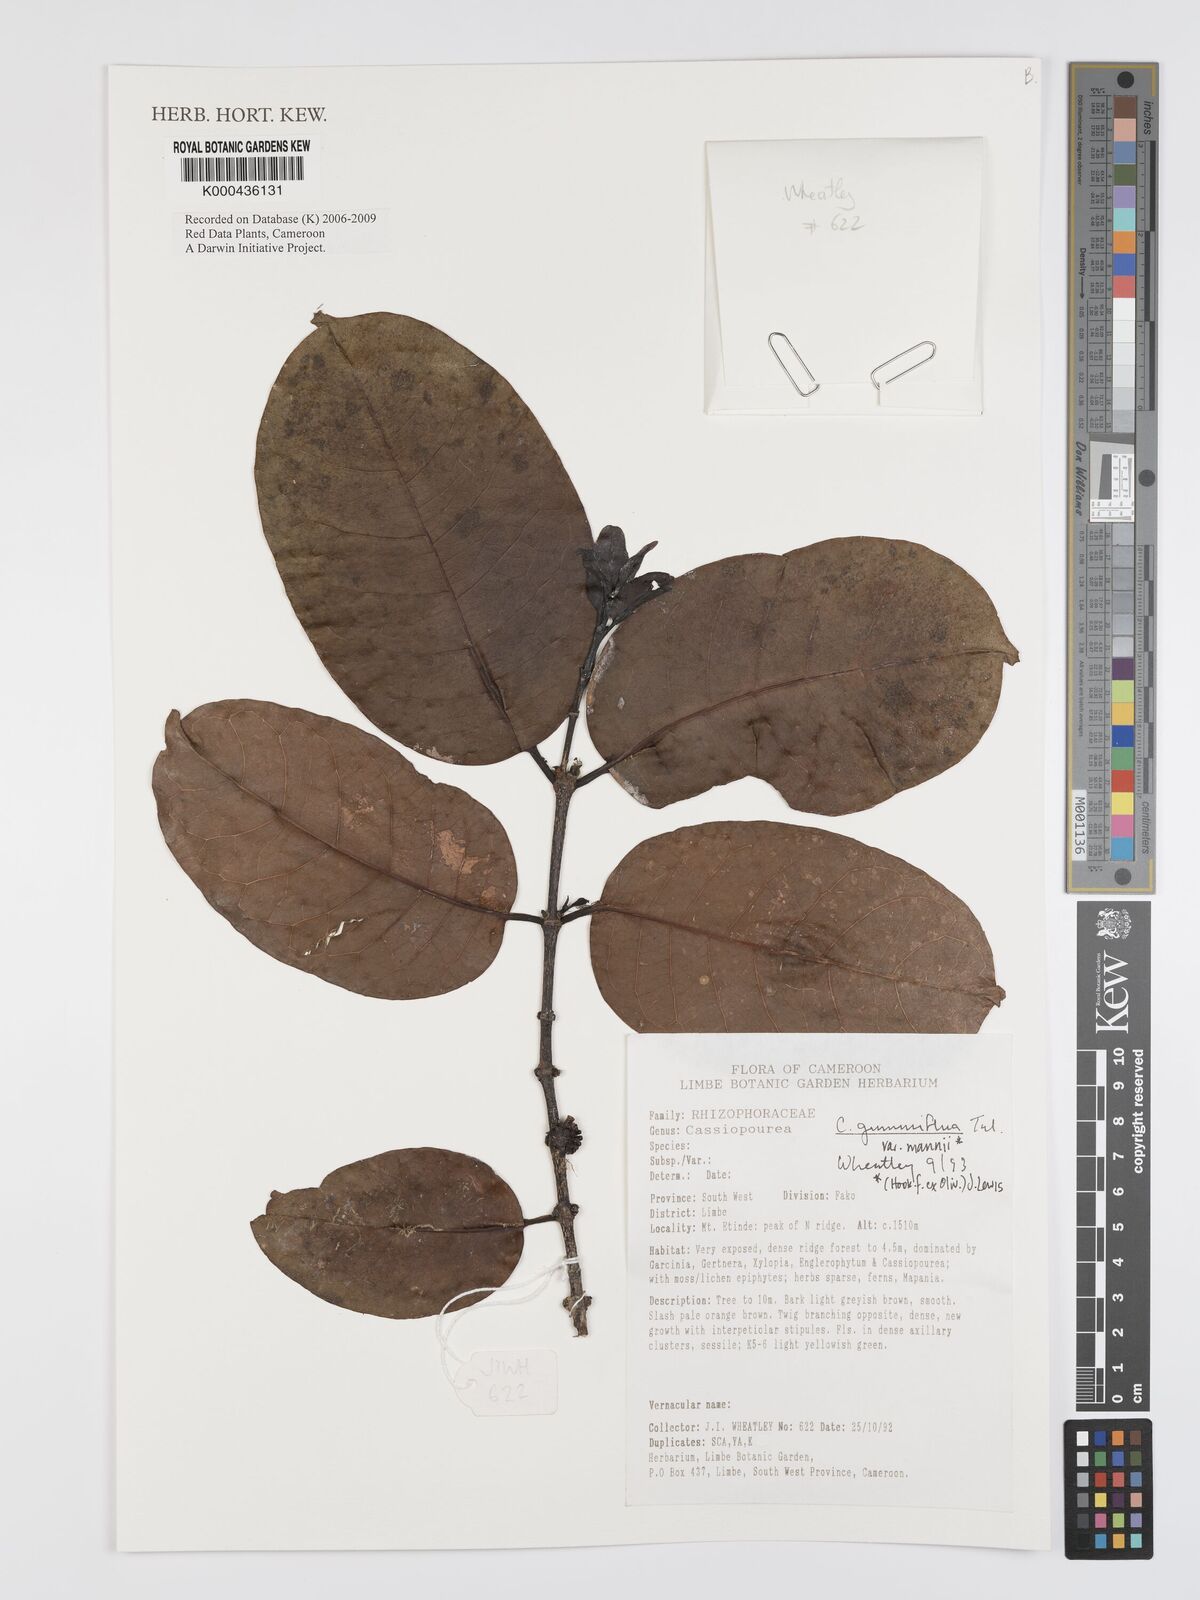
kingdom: Plantae
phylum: Tracheophyta
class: Magnoliopsida
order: Malpighiales
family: Rhizophoraceae
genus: Cassipourea
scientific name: Cassipourea gummiflua
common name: Large-leaved onionwood
